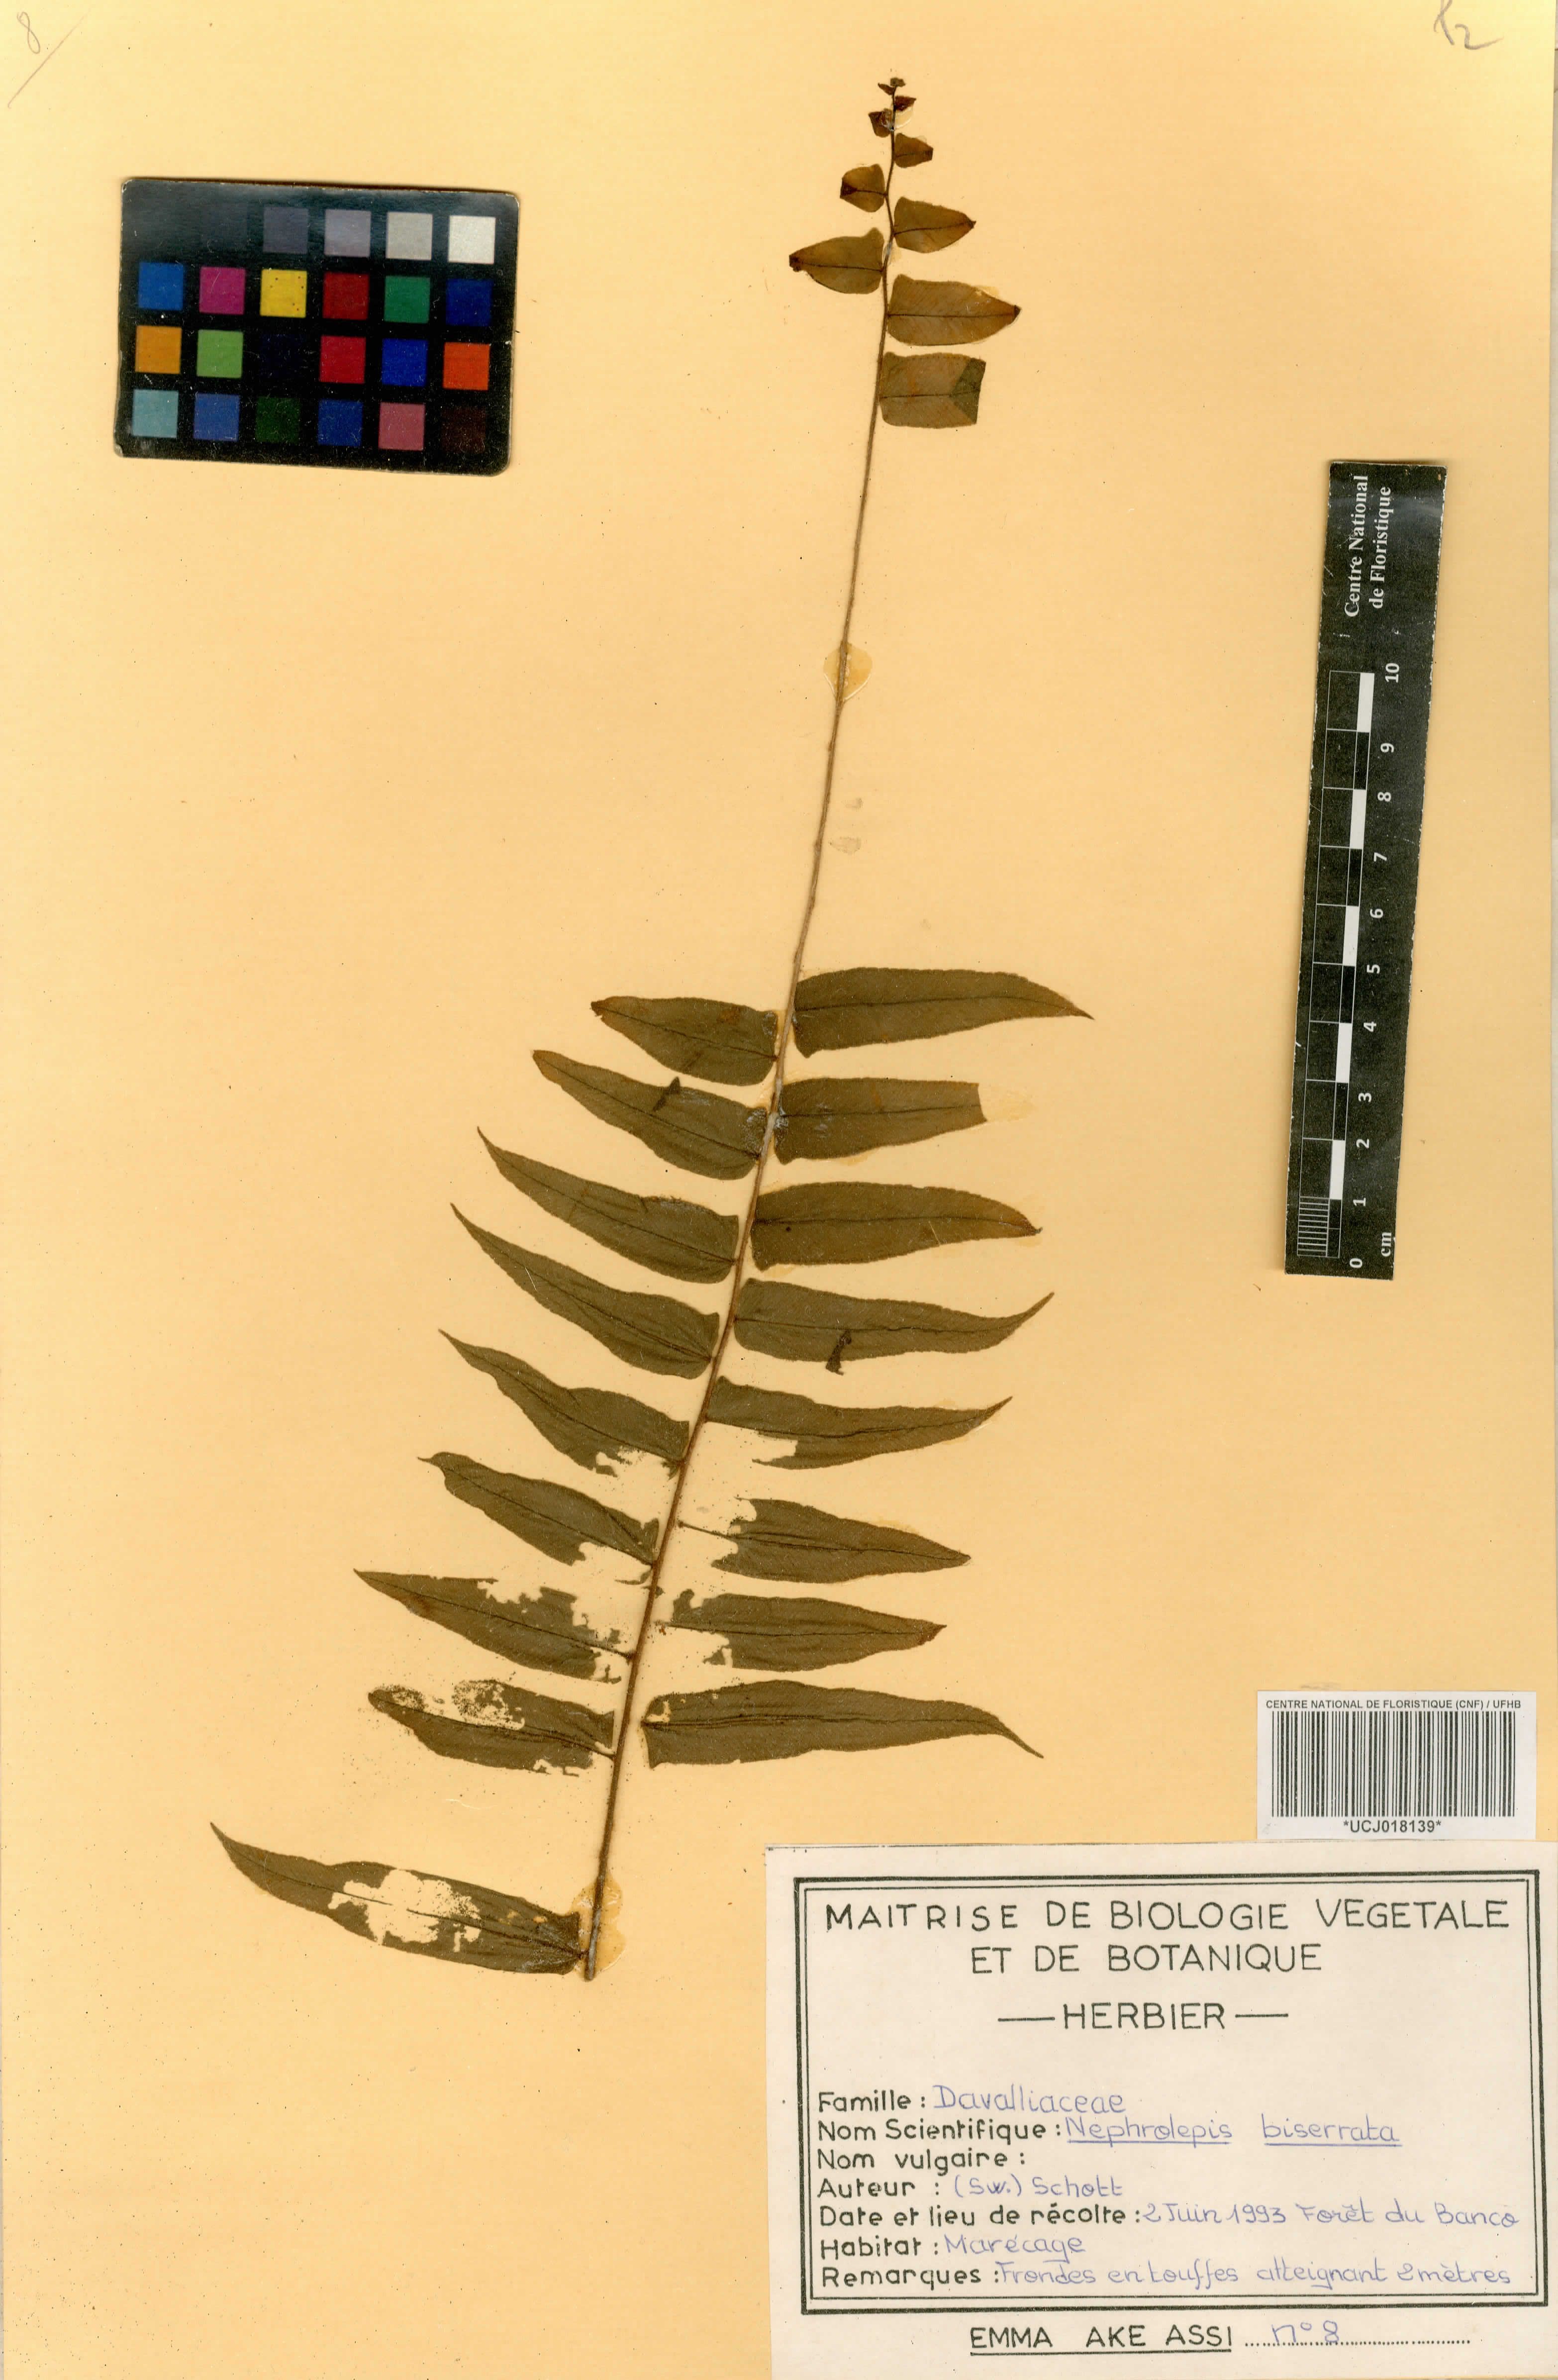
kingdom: Plantae
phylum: Tracheophyta
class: Polypodiopsida
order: Polypodiales
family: Nephrolepidaceae
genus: Nephrolepis
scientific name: Nephrolepis biserrata
